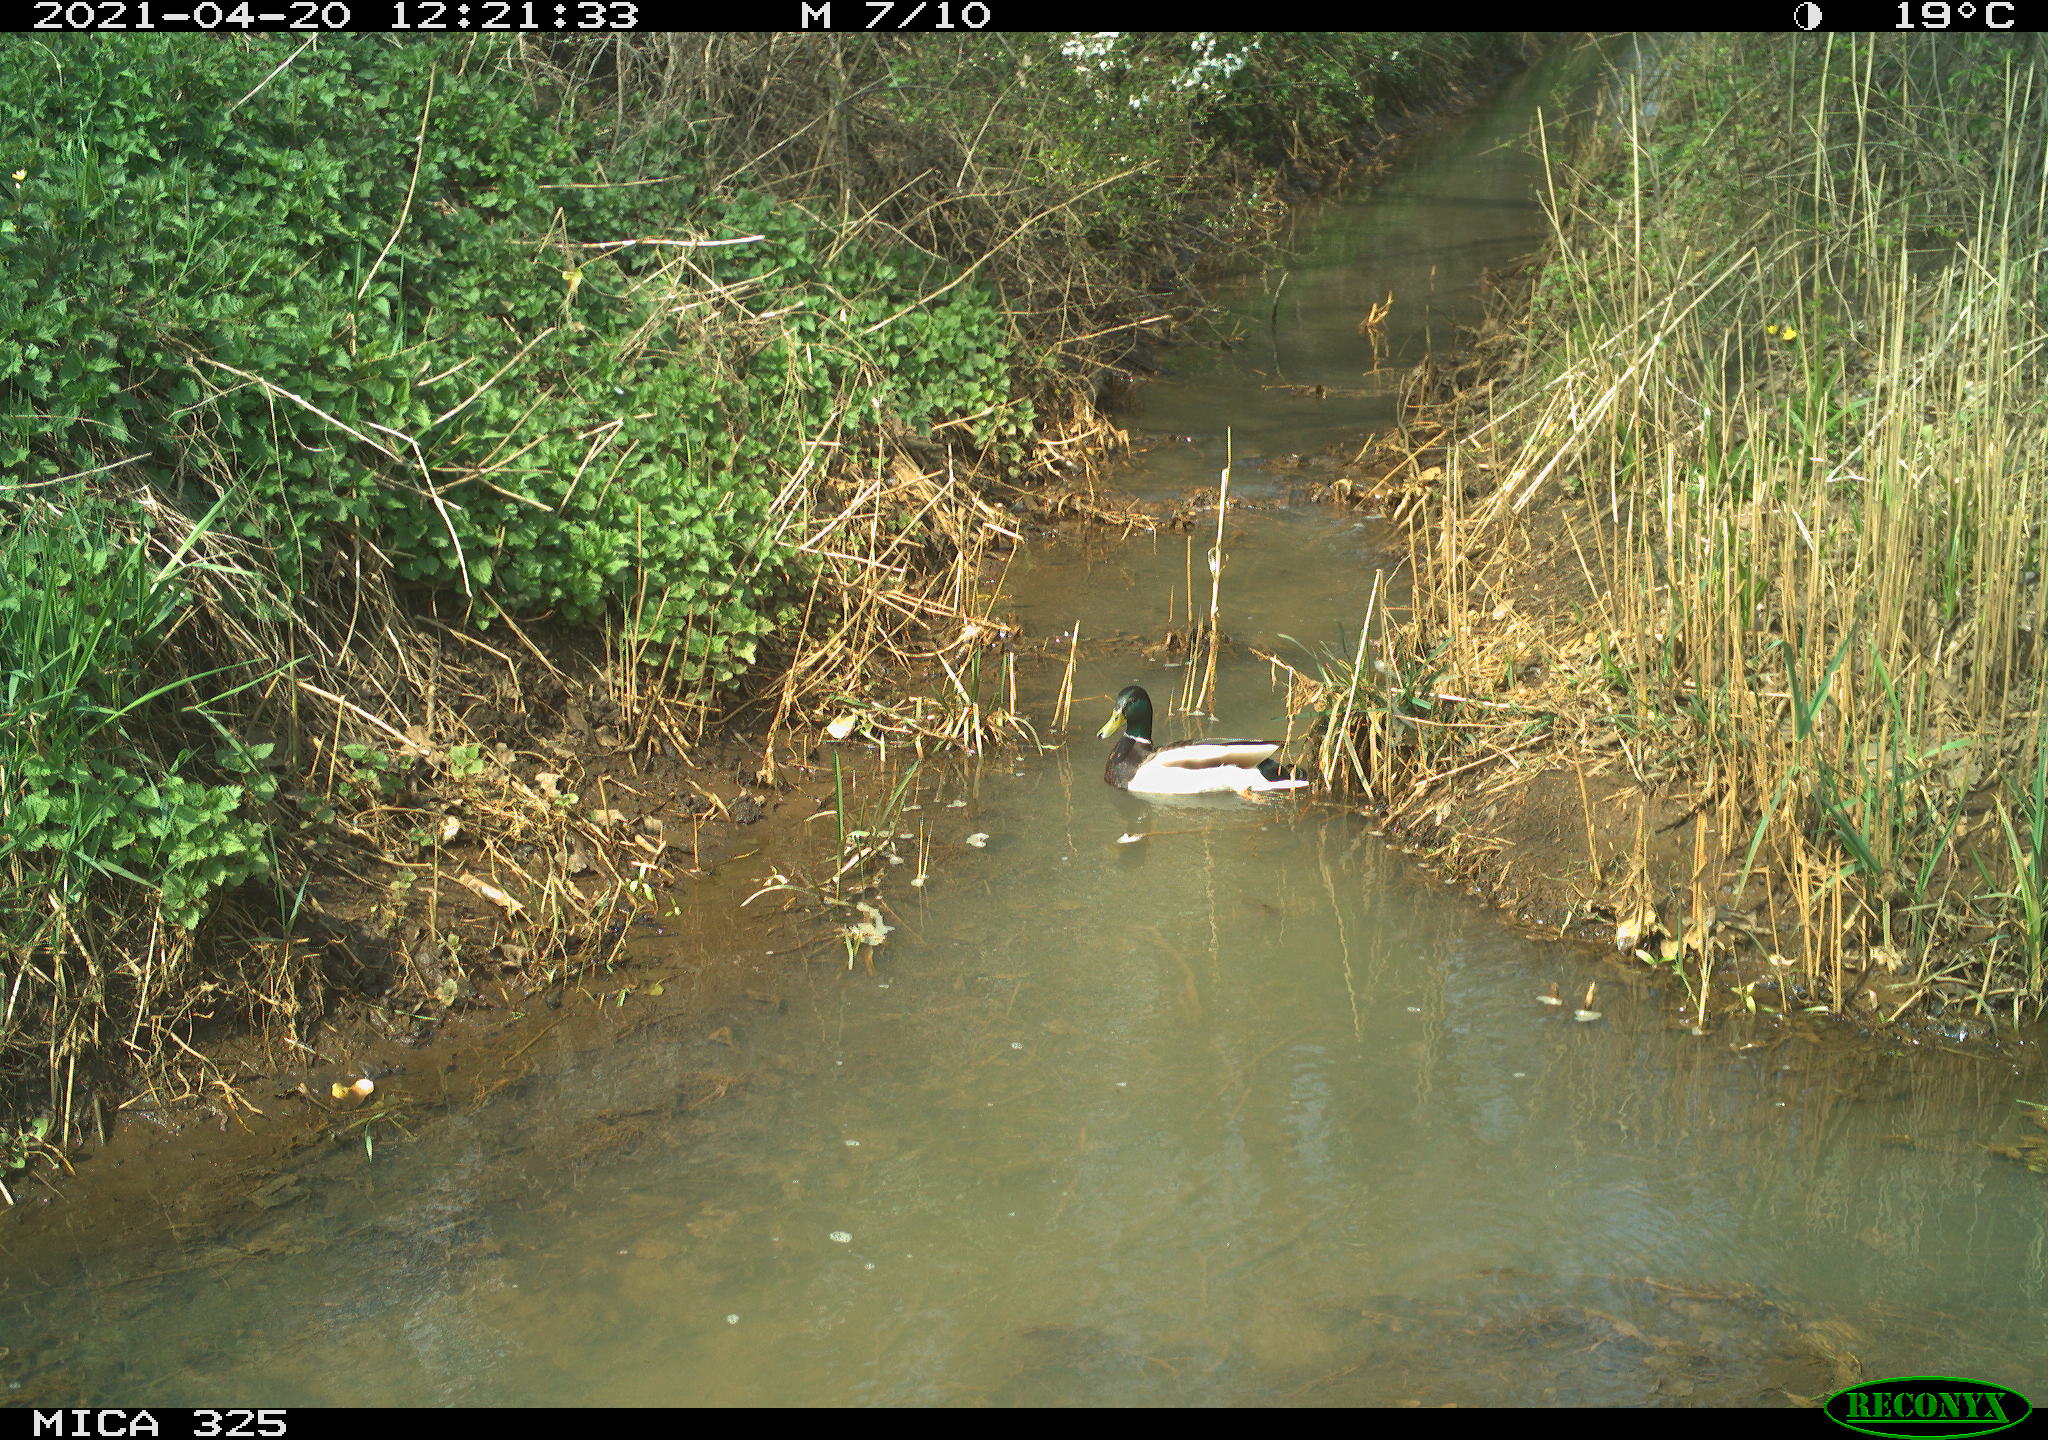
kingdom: Animalia
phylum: Chordata
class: Aves
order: Anseriformes
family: Anatidae
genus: Anas
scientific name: Anas platyrhynchos
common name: Mallard
